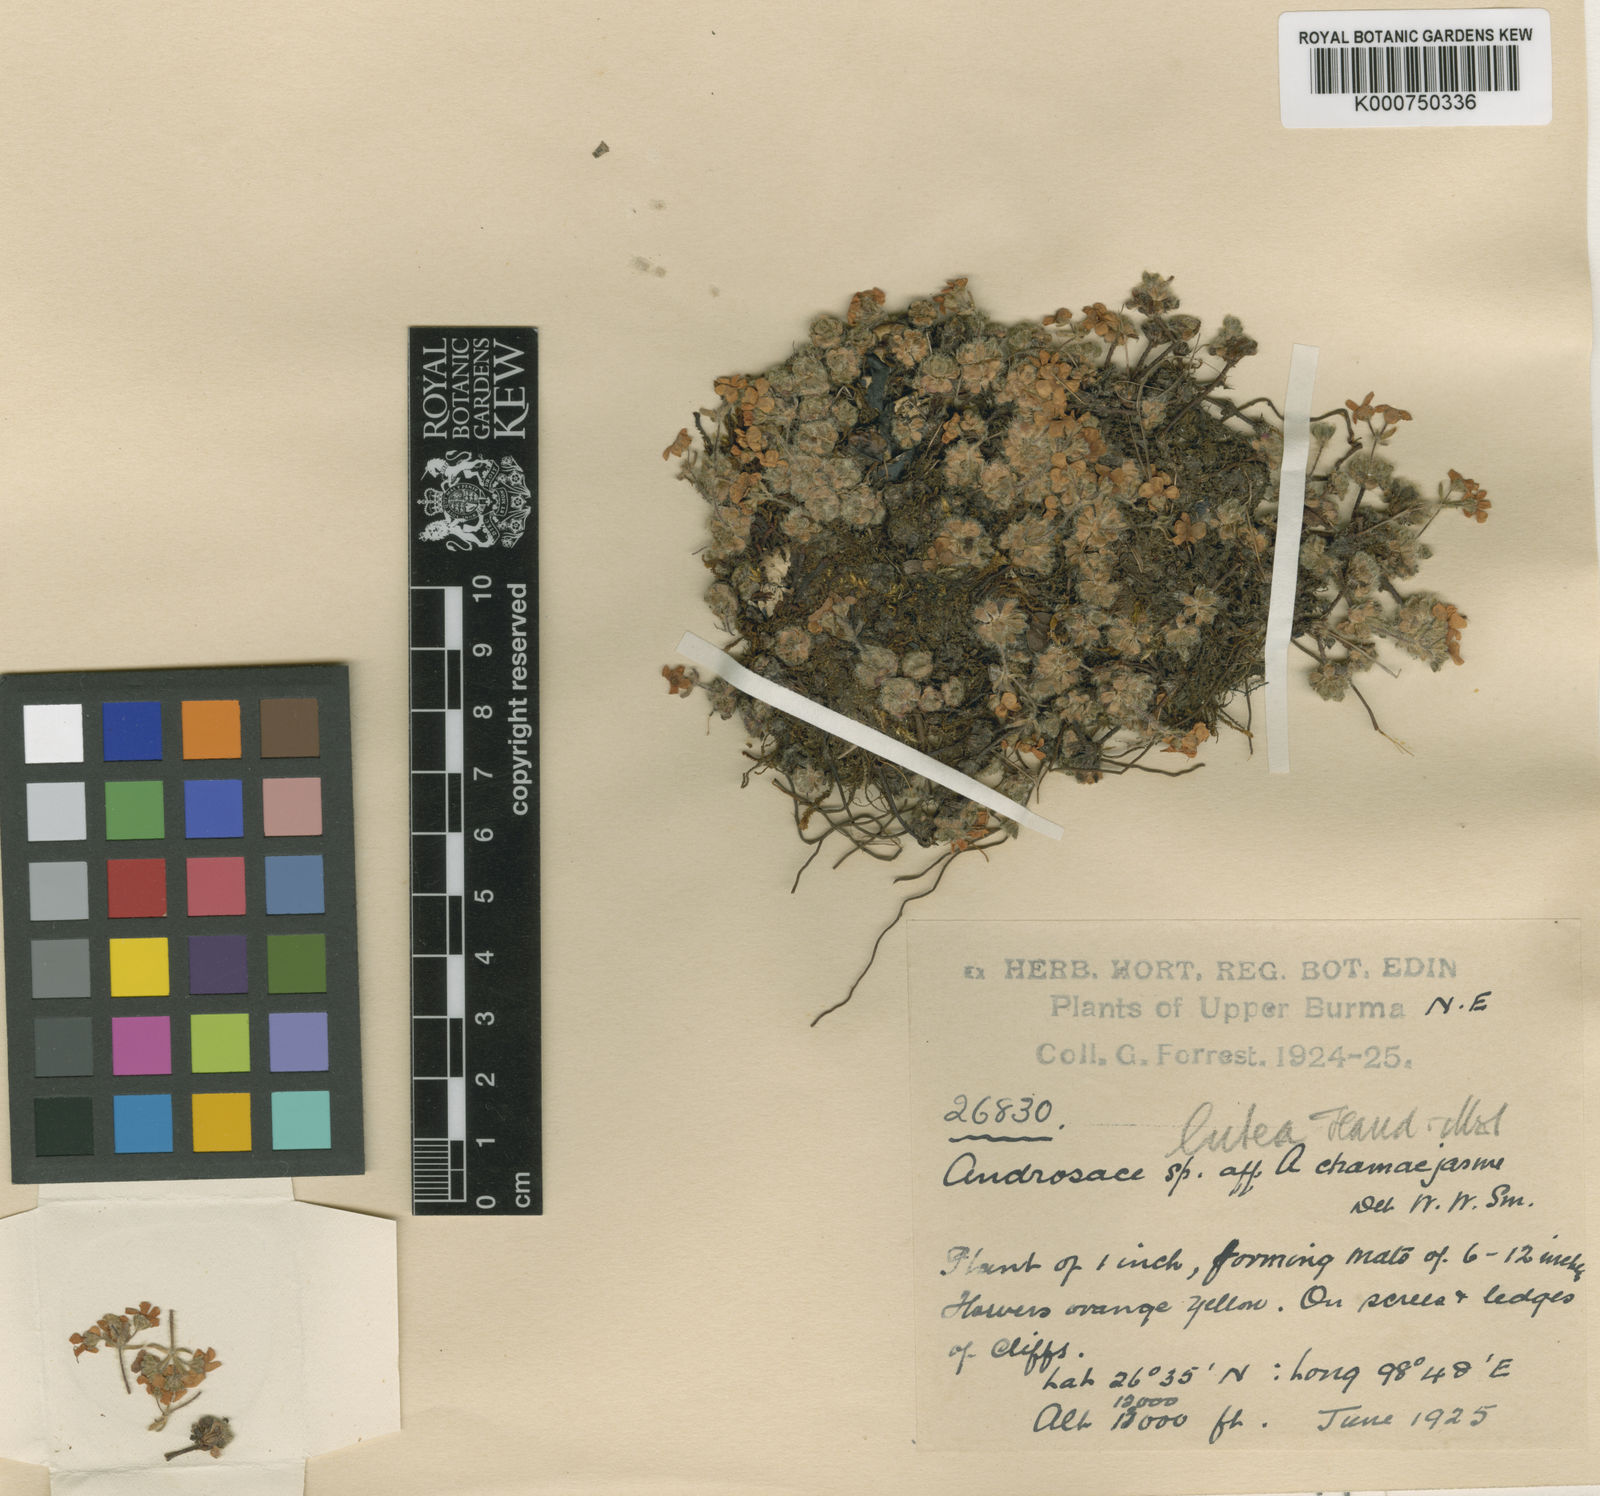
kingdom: Plantae
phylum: Tracheophyta
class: Magnoliopsida
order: Ericales
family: Primulaceae
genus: Androsace
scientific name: Androsace handel-mazzettii
